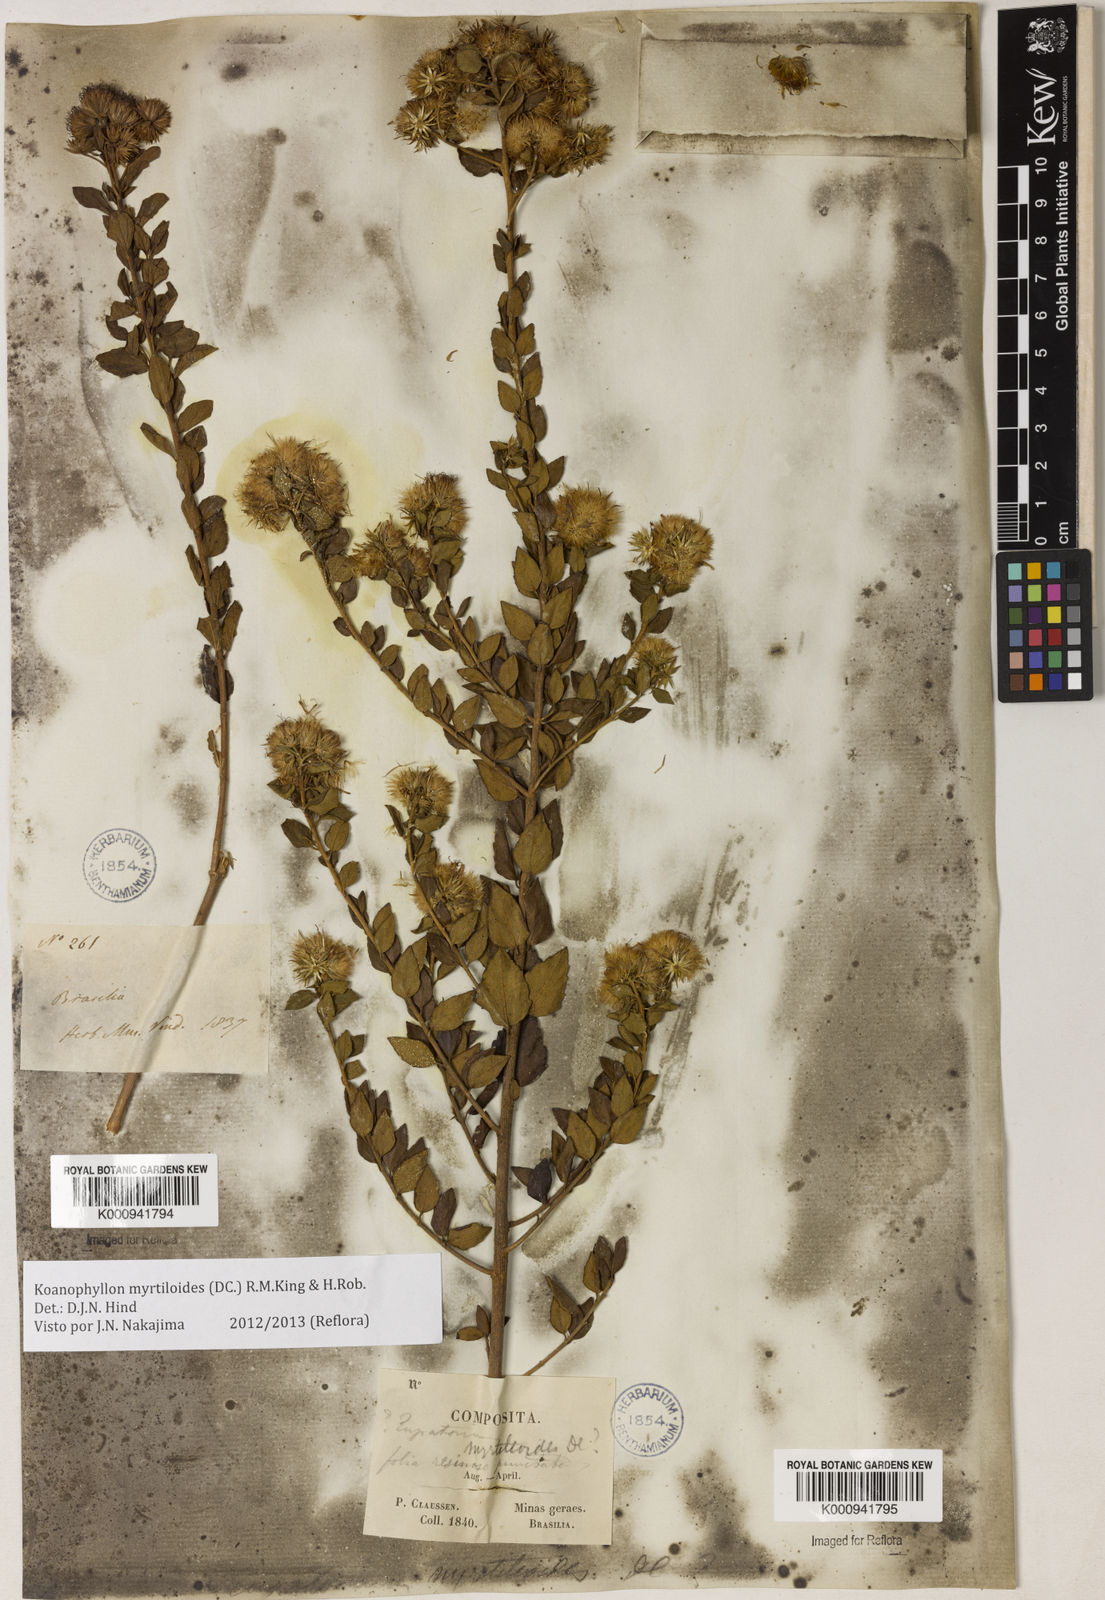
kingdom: Plantae
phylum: Tracheophyta
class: Magnoliopsida
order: Asterales
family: Asteraceae
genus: Koanophyllon
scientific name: Koanophyllon myrtilloides
